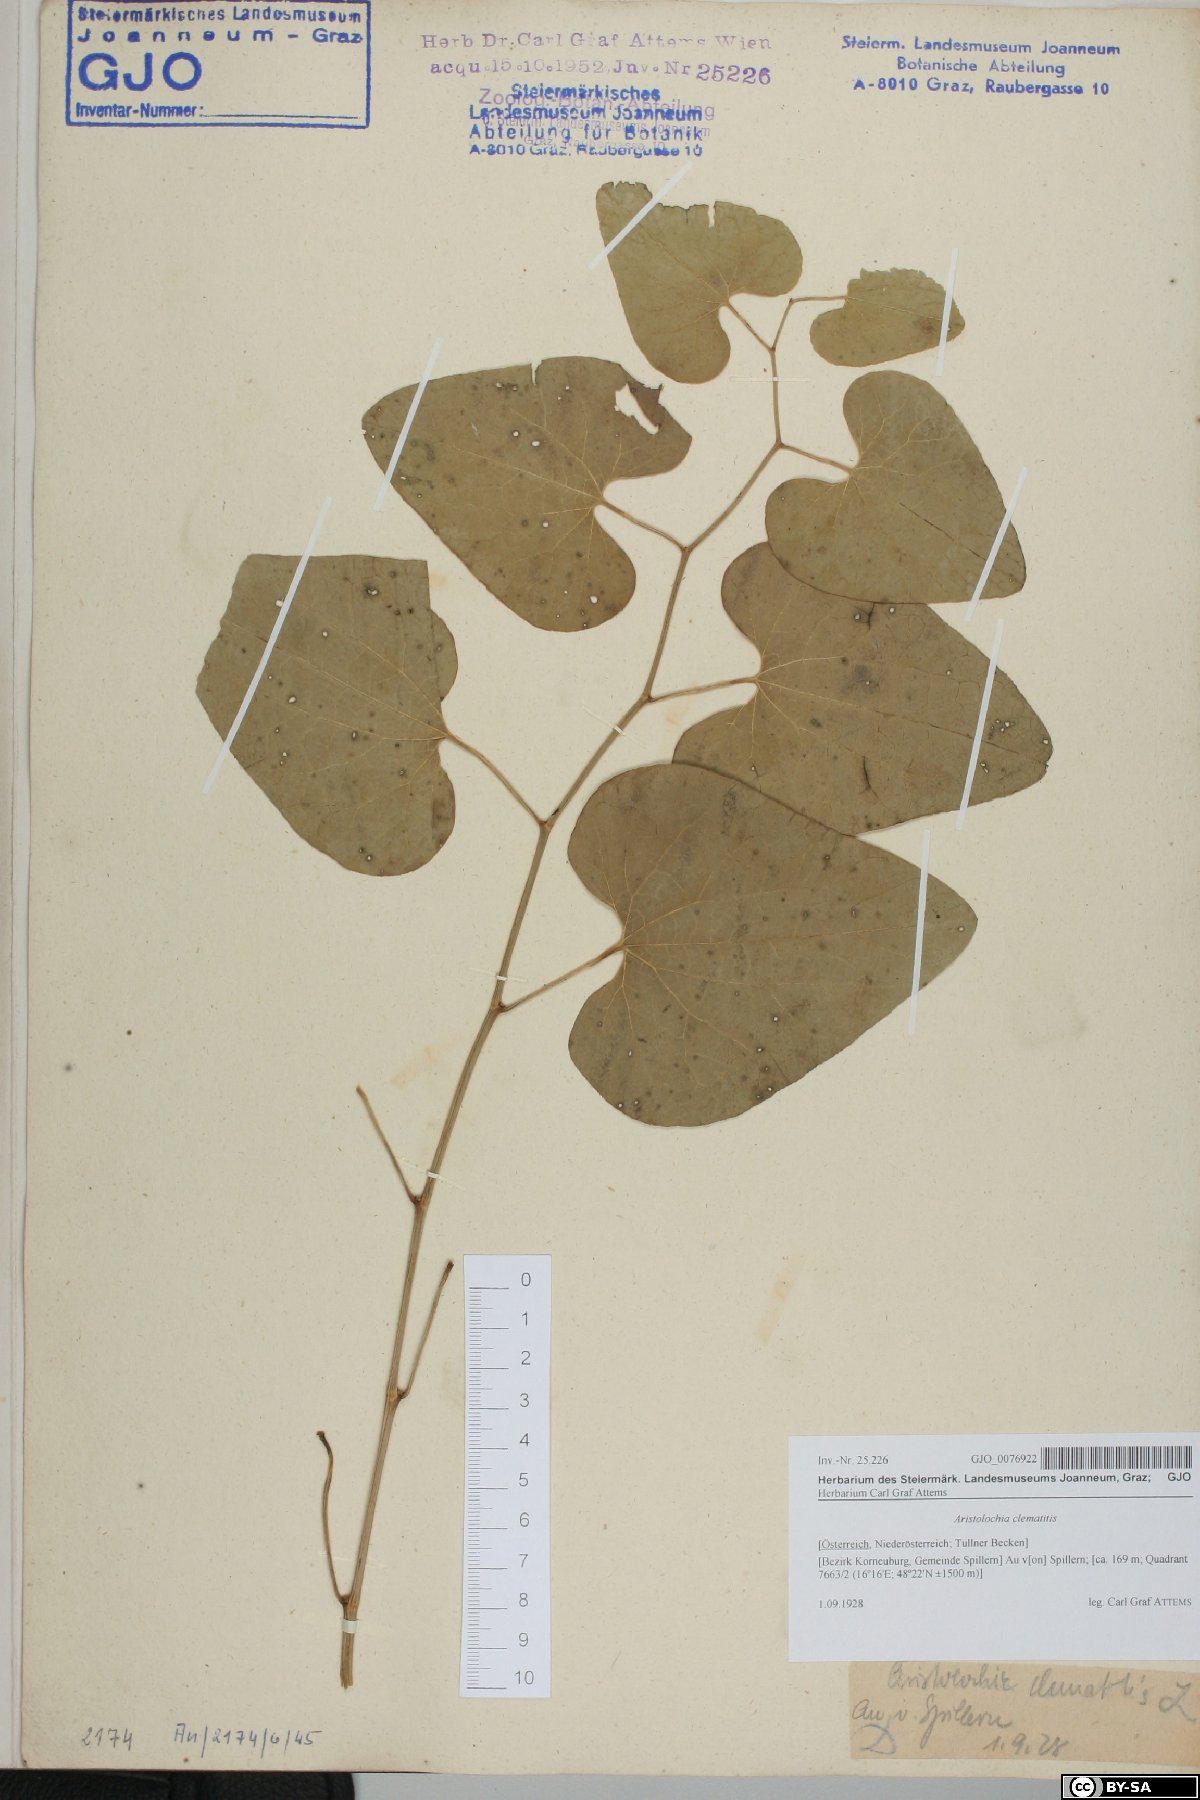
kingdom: Plantae
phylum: Tracheophyta
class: Magnoliopsida
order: Piperales
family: Aristolochiaceae
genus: Aristolochia
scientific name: Aristolochia clematitis
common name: Birthwort
